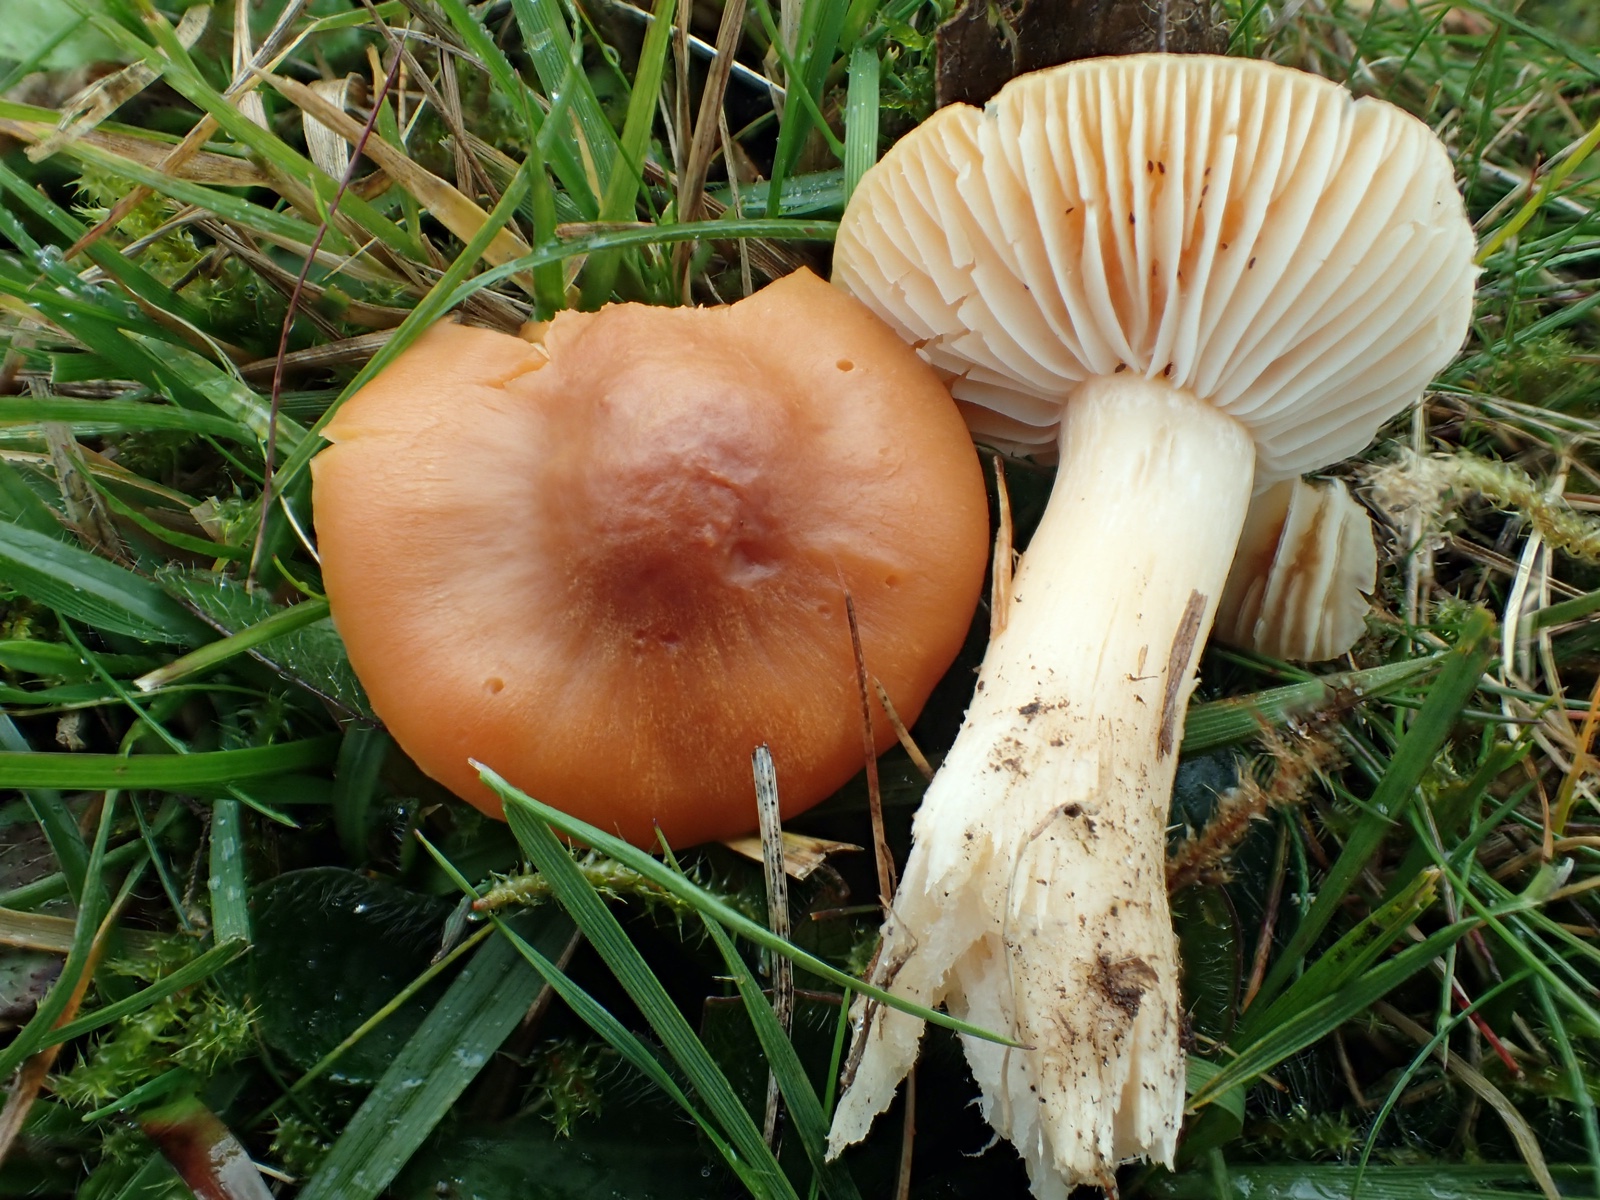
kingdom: Fungi
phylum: Basidiomycota
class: Agaricomycetes
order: Agaricales
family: Hygrophoraceae
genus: Cuphophyllus
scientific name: Cuphophyllus pratensis
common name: eng-vokshat
